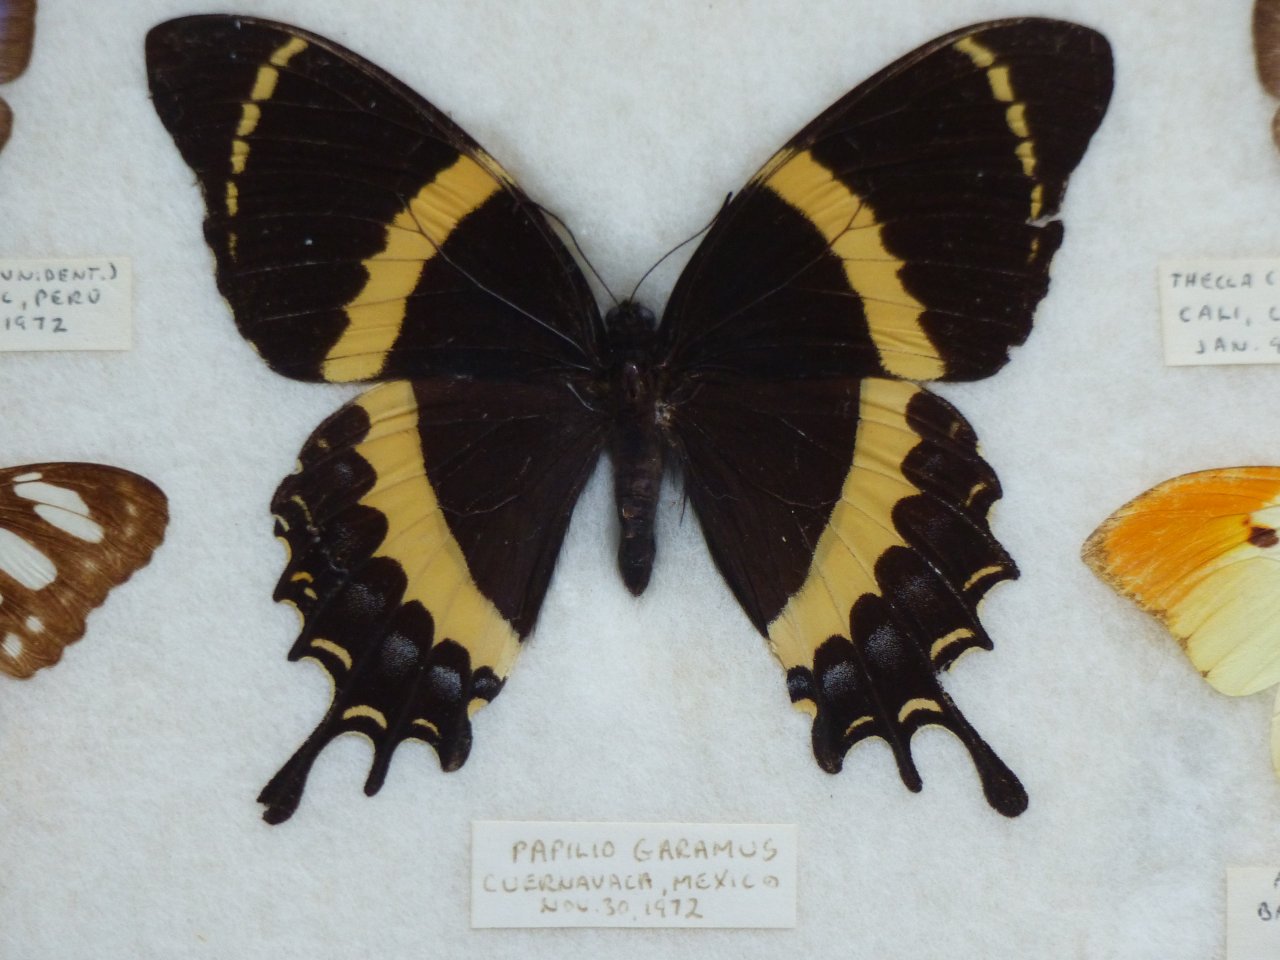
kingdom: Animalia
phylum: Arthropoda
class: Insecta
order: Lepidoptera
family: Papilionidae
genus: Pterourus
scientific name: Pterourus garamas
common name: Magnificent Swallowtail
